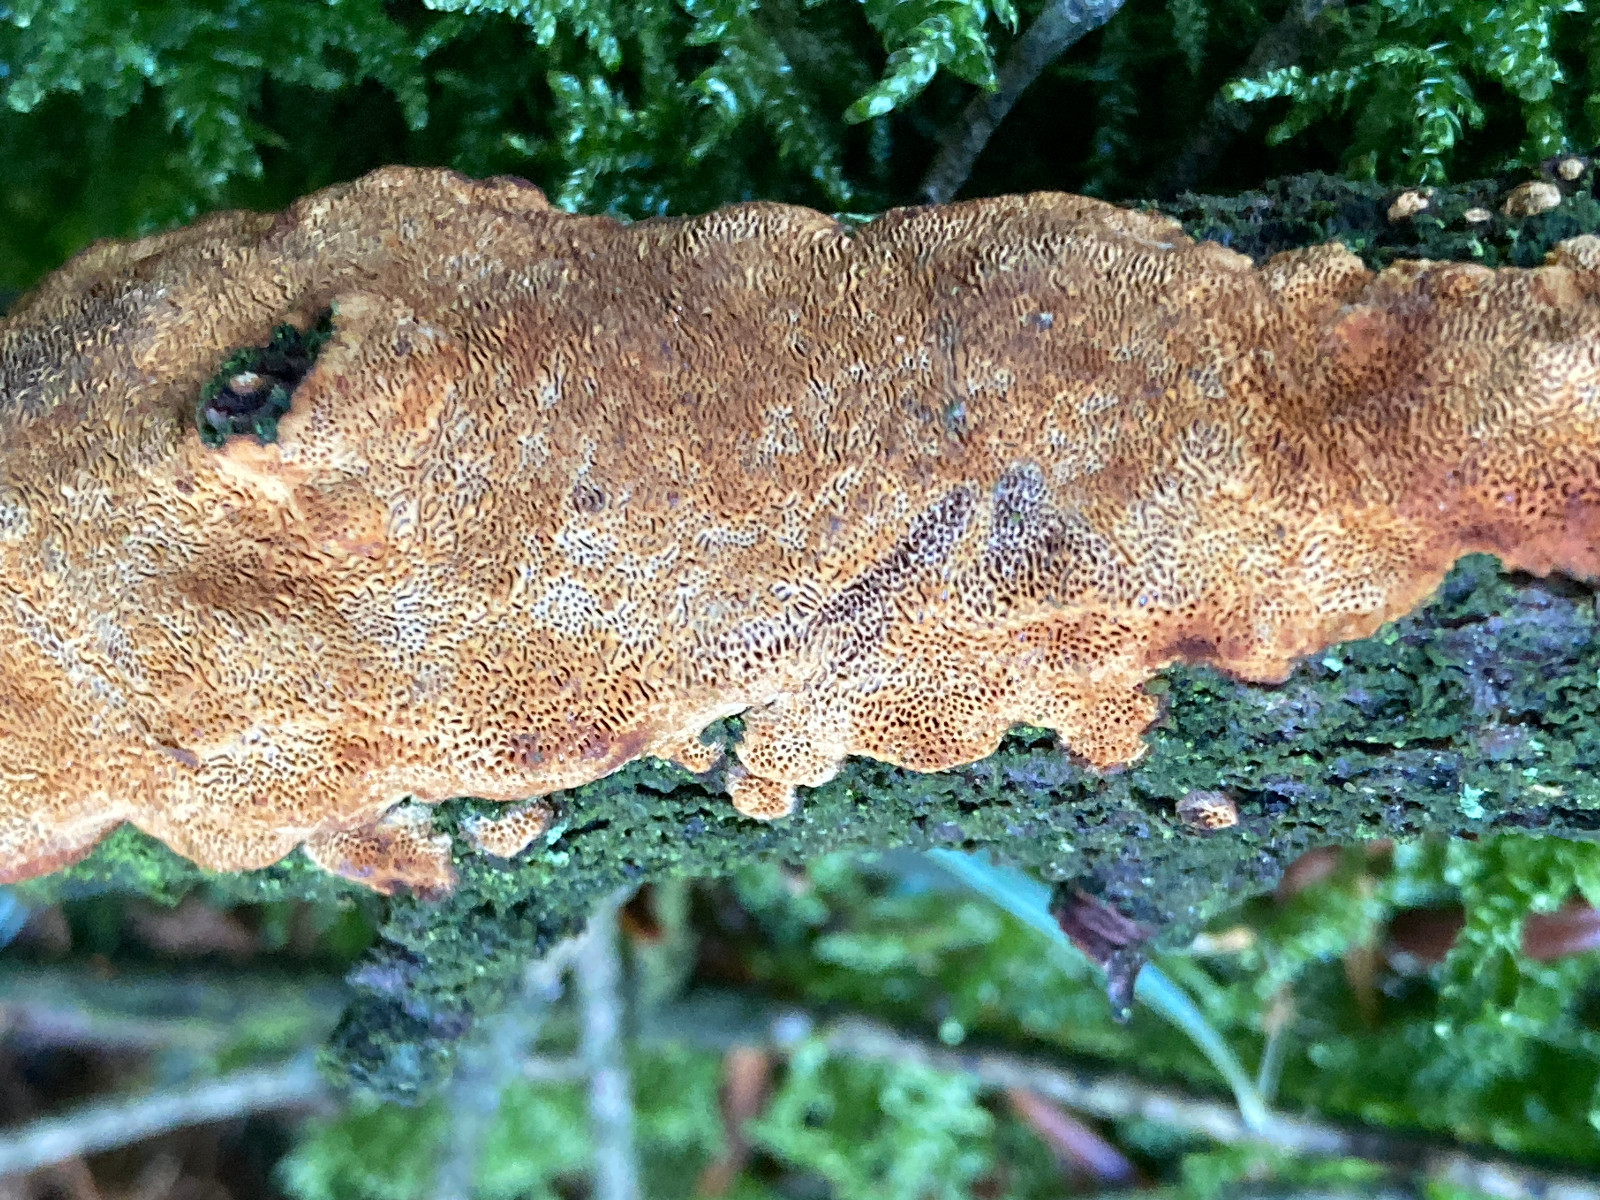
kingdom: Fungi
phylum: Basidiomycota
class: Agaricomycetes
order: Hymenochaetales
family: Hymenochaetaceae
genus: Fuscoporia
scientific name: Fuscoporia ferrea
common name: skorpe-ildporesvamp
